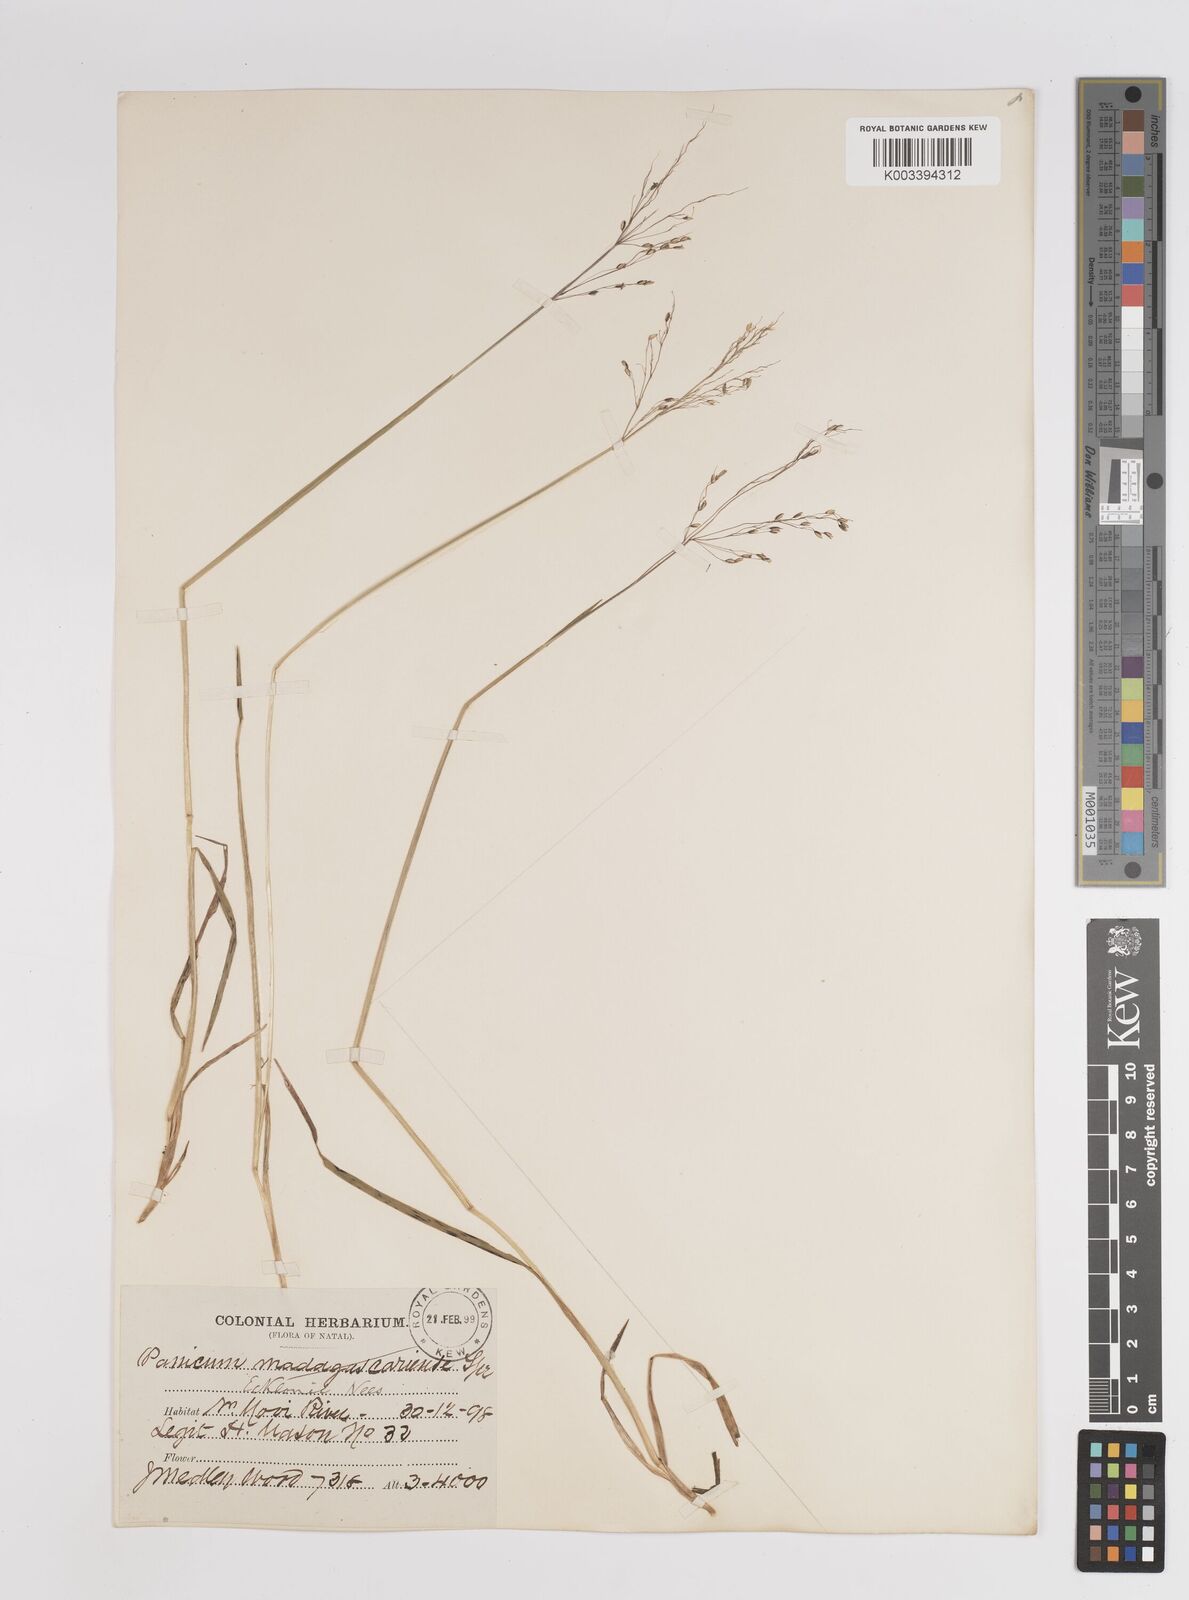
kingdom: Plantae
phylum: Tracheophyta
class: Liliopsida
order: Poales
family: Poaceae
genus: Adenochloa
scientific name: Adenochloa ecklonii
